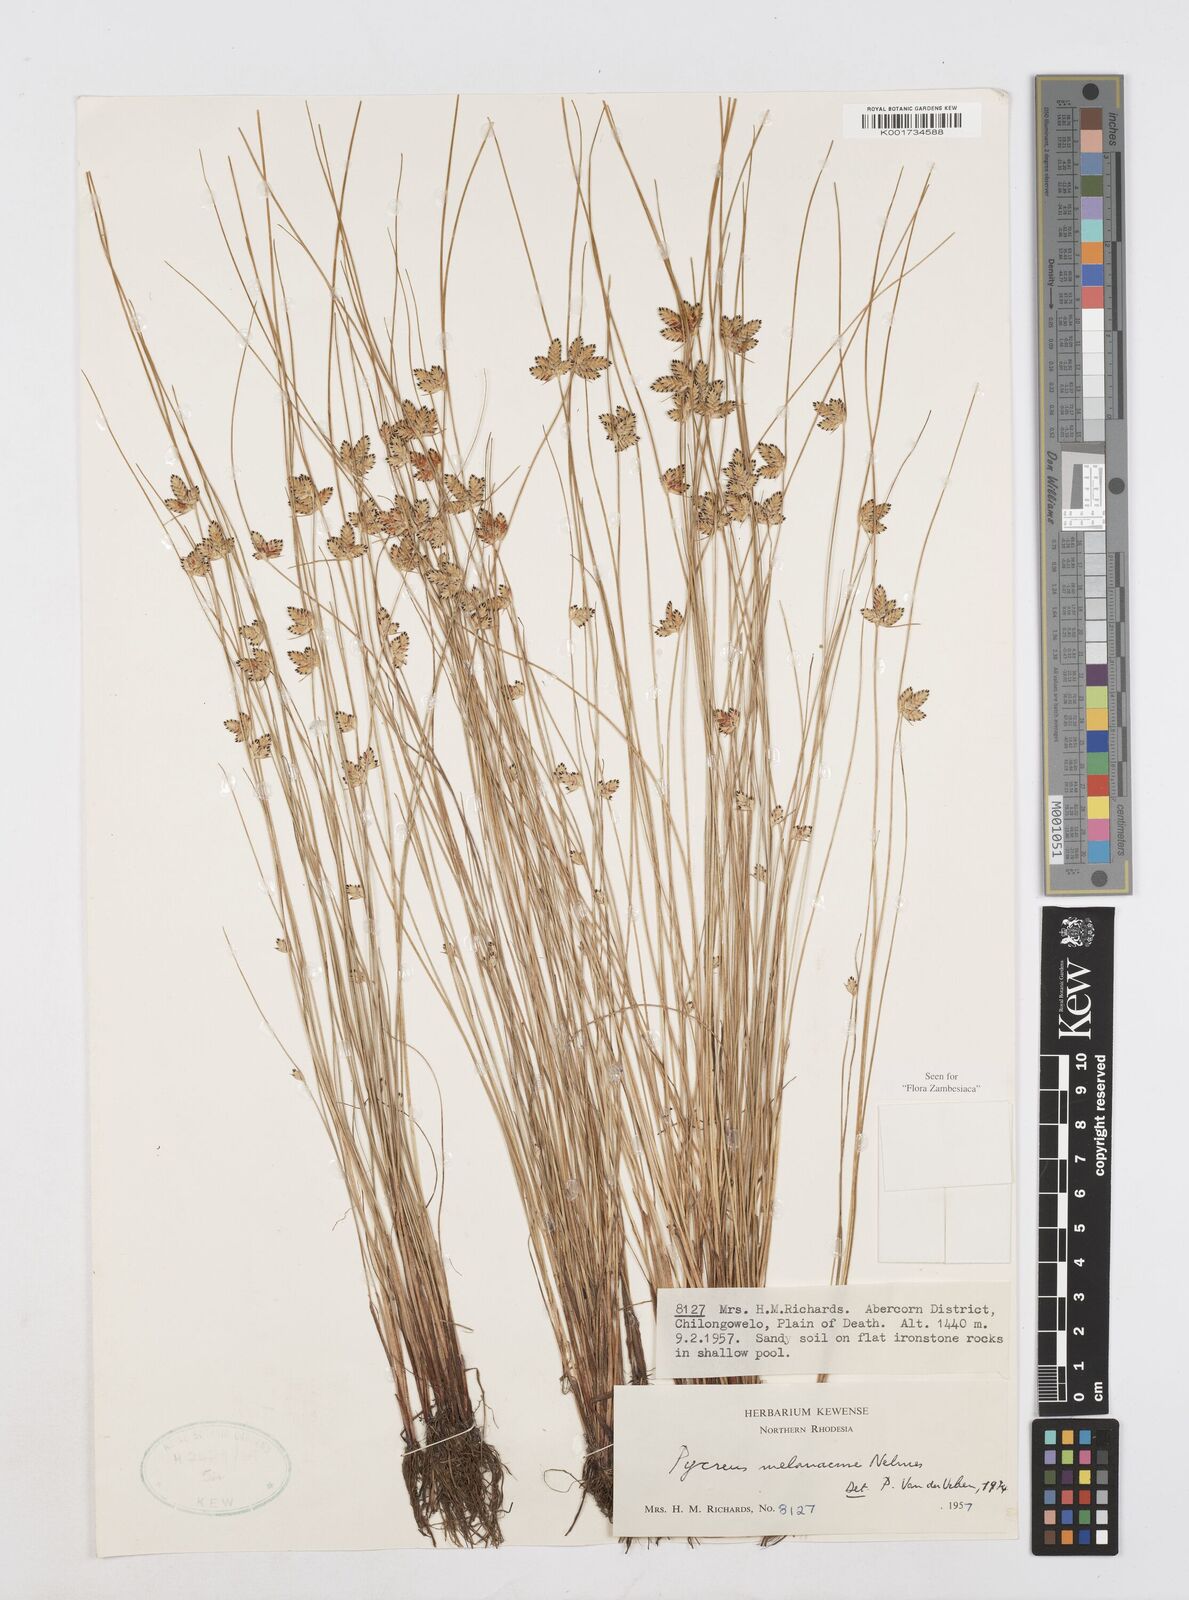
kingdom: Plantae
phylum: Tracheophyta
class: Liliopsida
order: Poales
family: Cyperaceae
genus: Cyperus
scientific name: Cyperus melanacme
